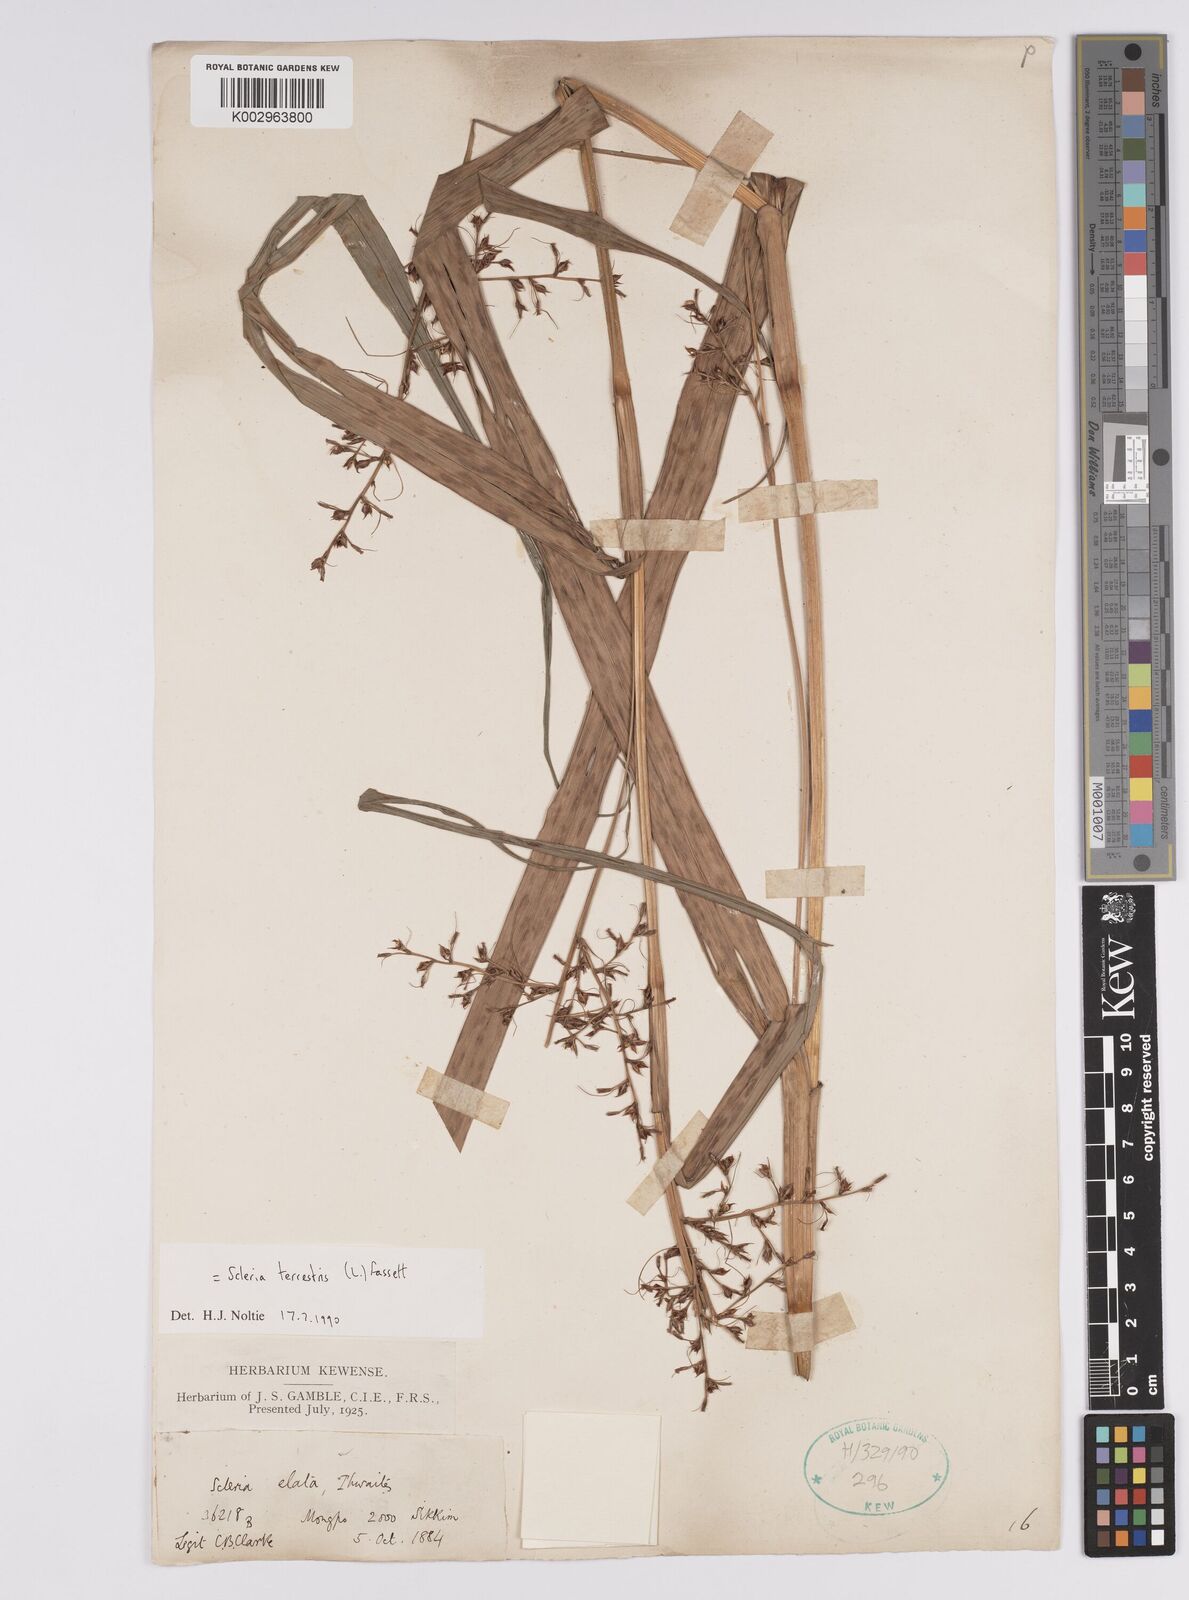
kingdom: Plantae
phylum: Tracheophyta
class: Liliopsida
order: Poales
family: Cyperaceae
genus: Scleria
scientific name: Scleria terrestris
